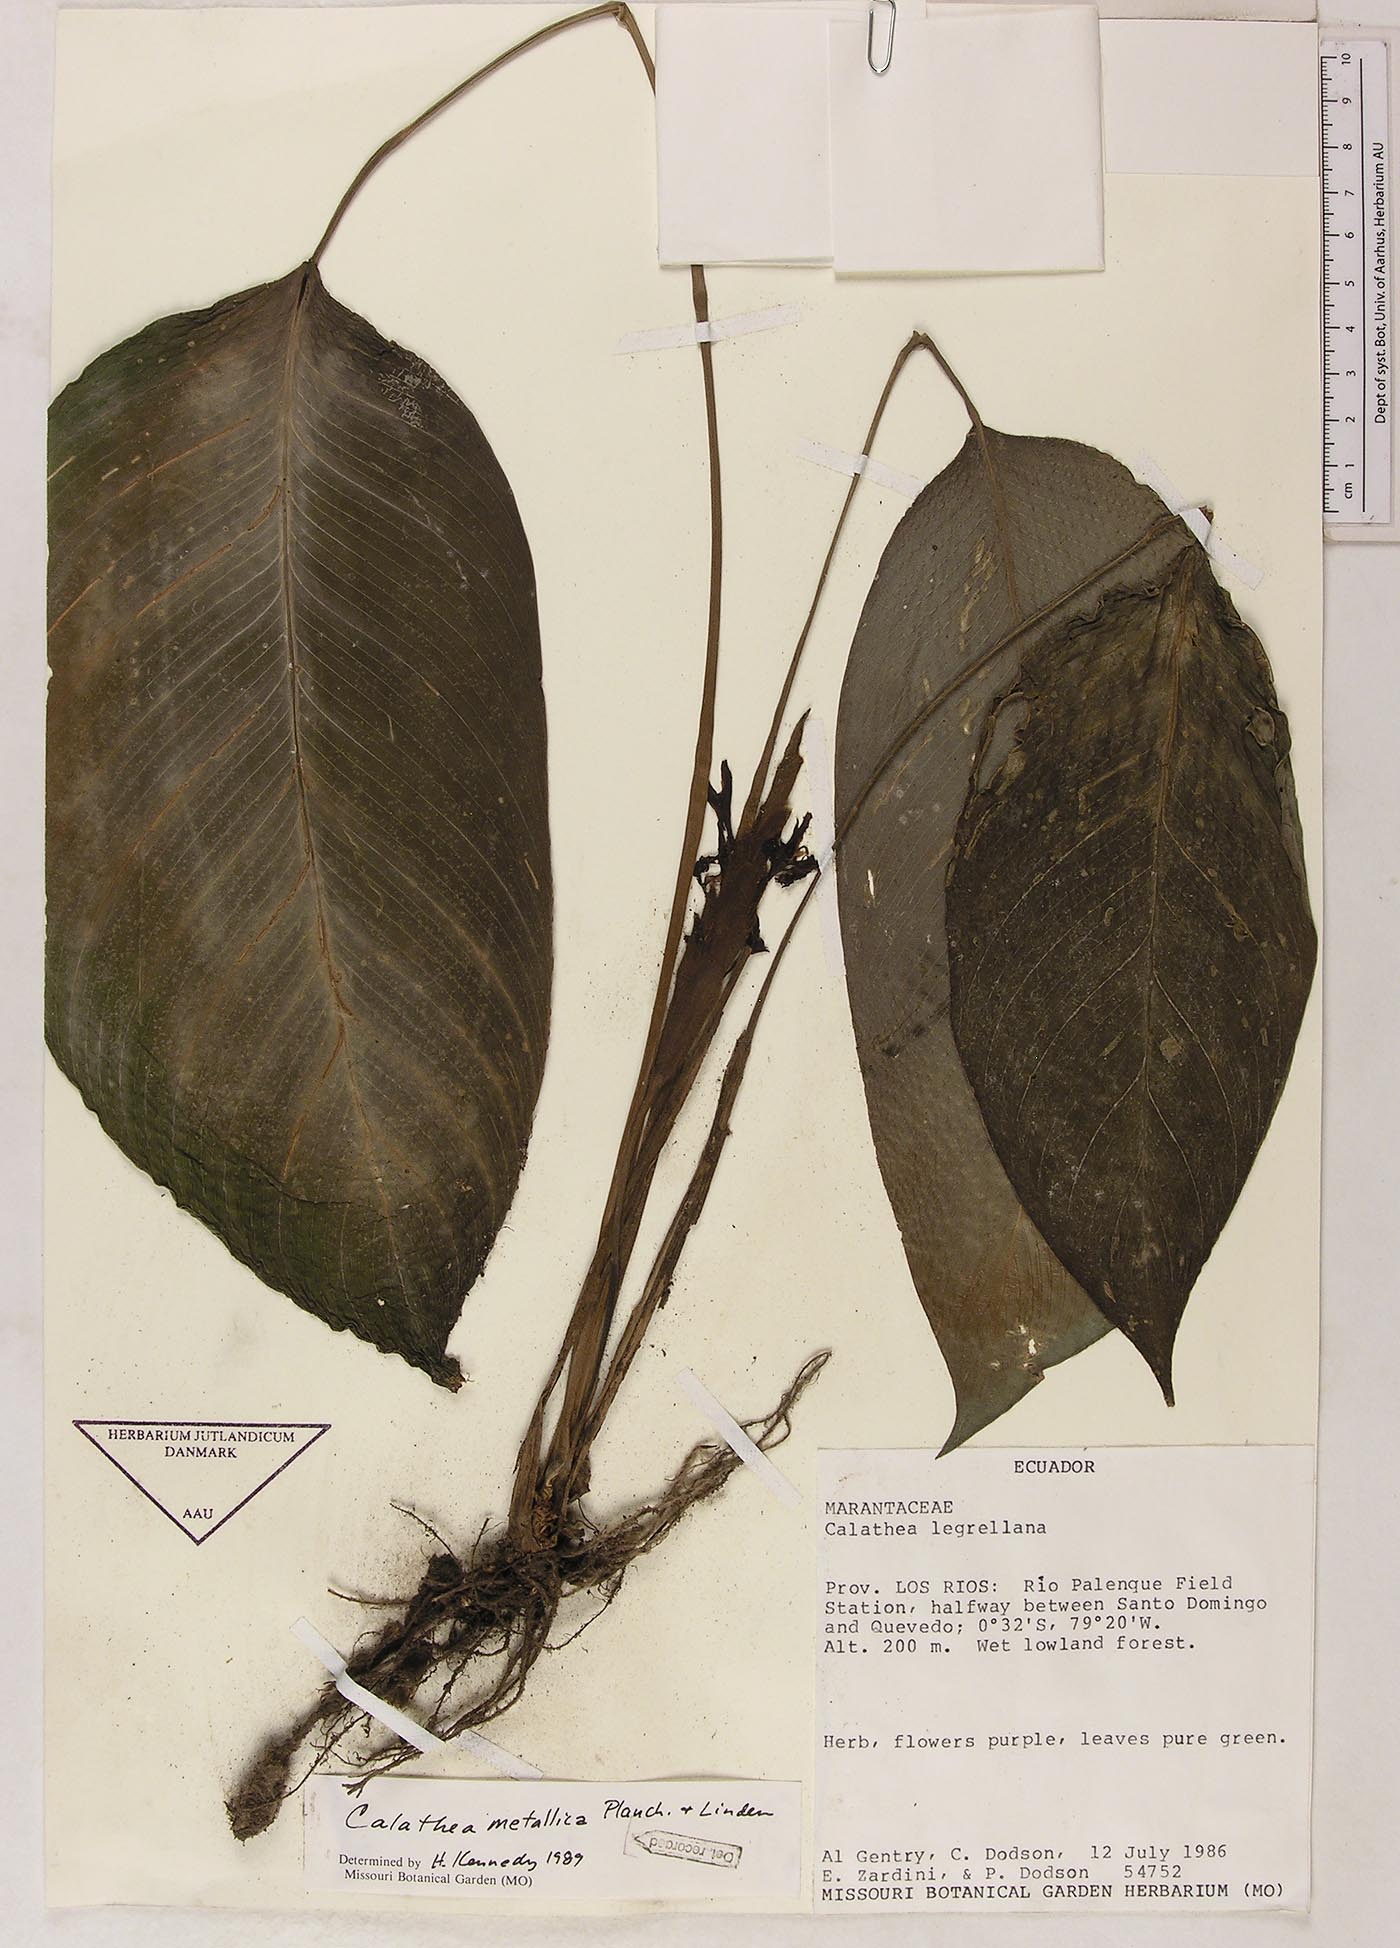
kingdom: Plantae
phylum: Tracheophyta
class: Liliopsida
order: Zingiberales
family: Marantaceae
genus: Goeppertia
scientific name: Goeppertia metallica
